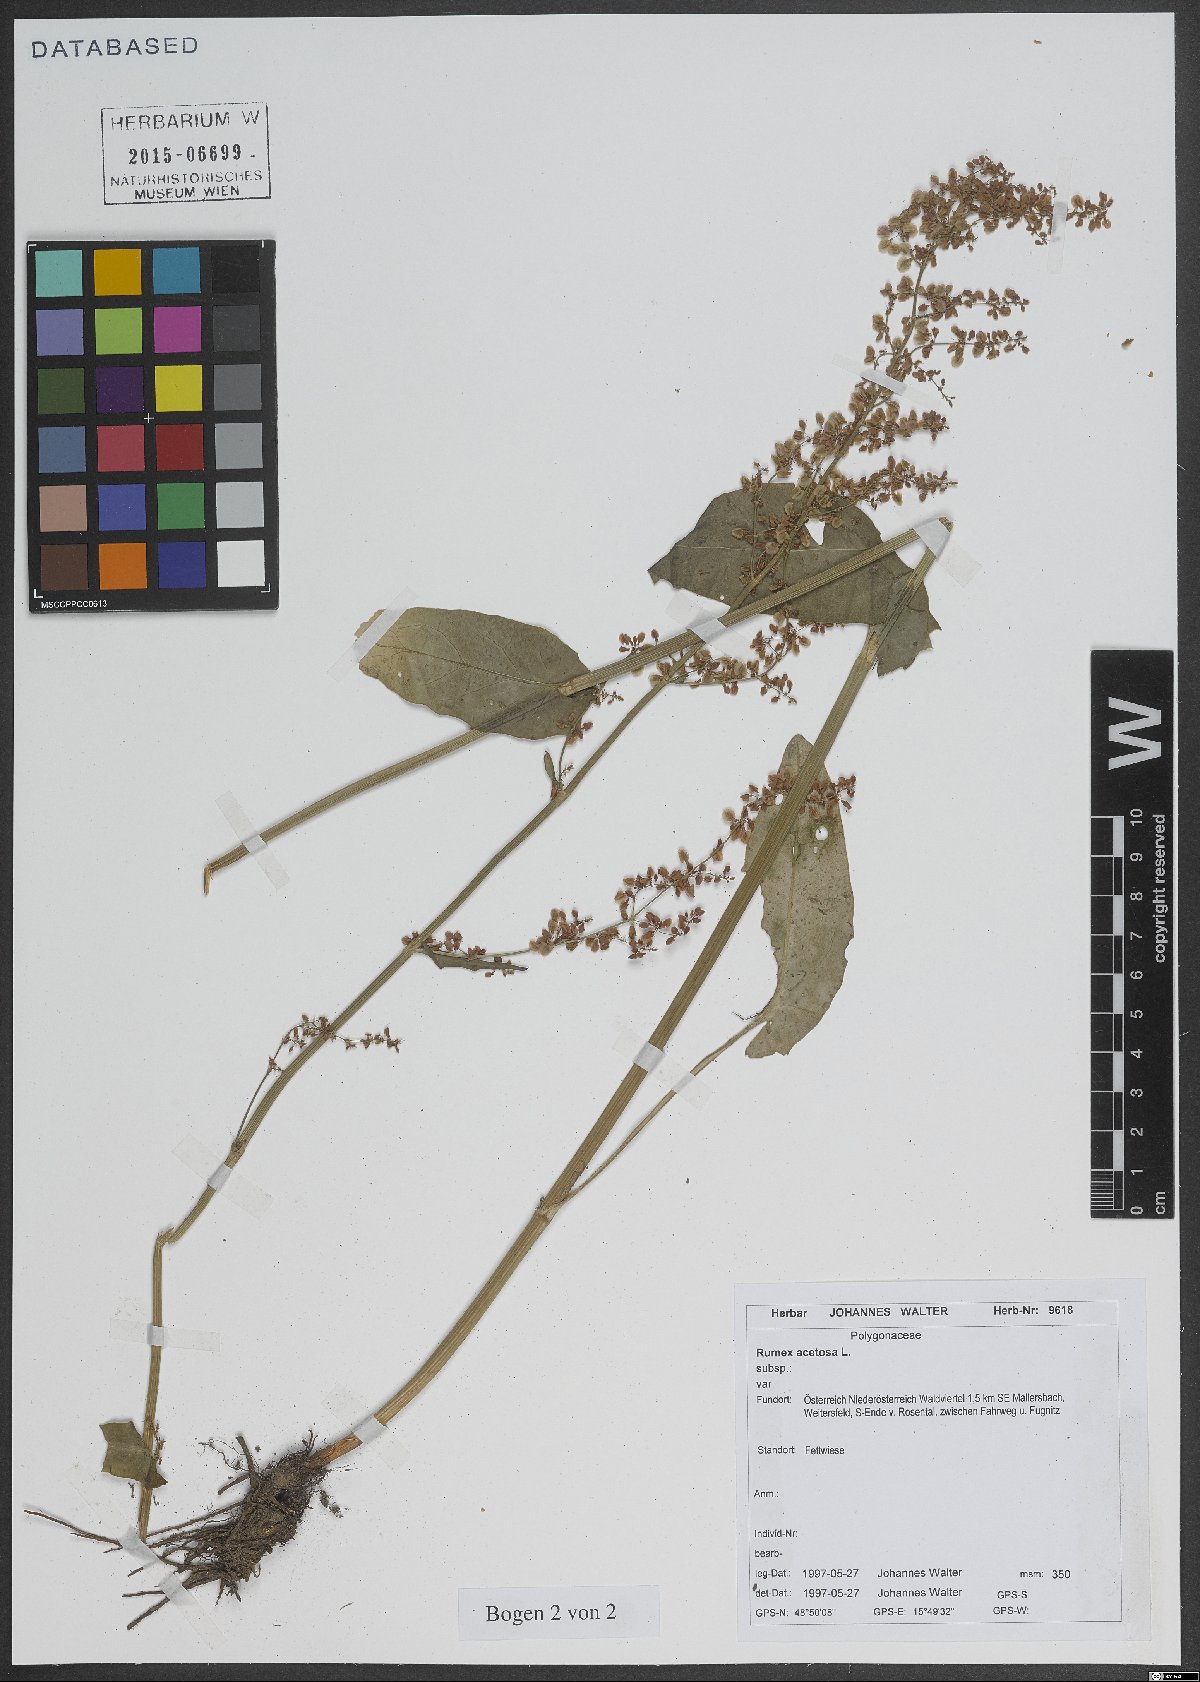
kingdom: Plantae
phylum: Tracheophyta
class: Magnoliopsida
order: Caryophyllales
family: Polygonaceae
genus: Rumex
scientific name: Rumex acetosa
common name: Garden sorrel
